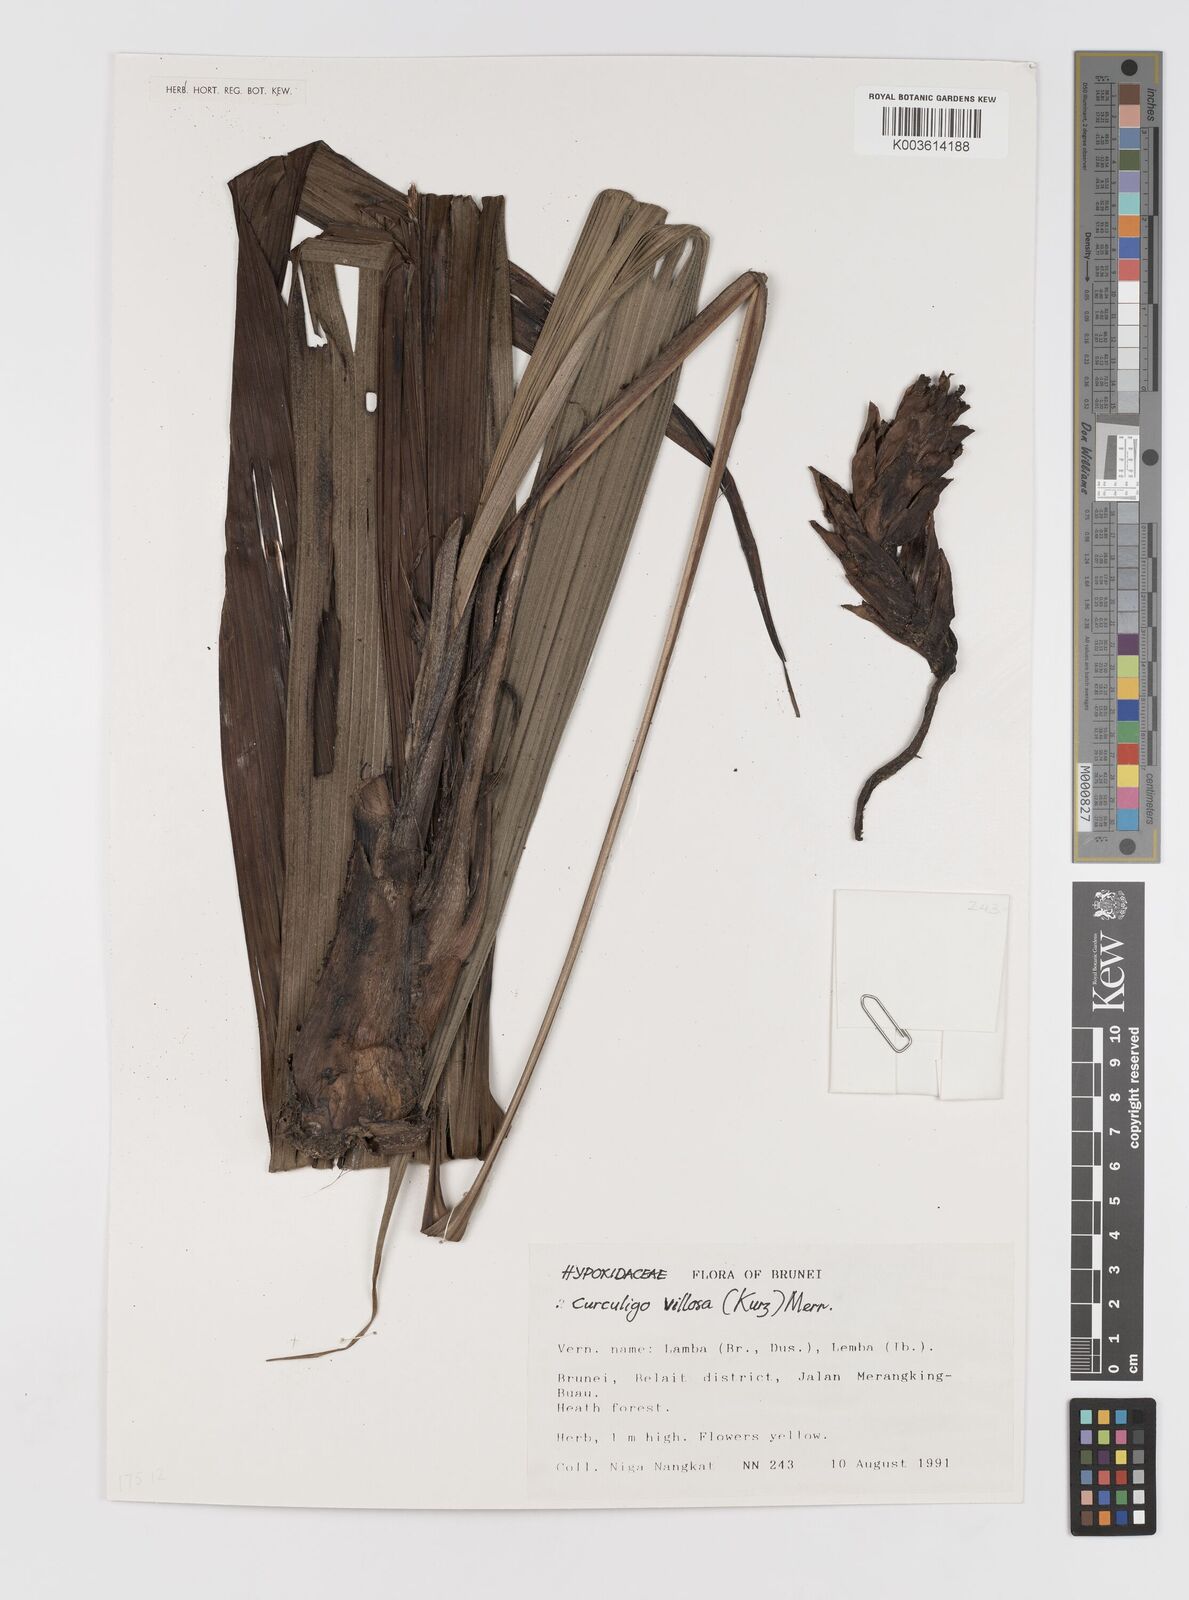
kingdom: Plantae
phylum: Tracheophyta
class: Liliopsida
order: Asparagales
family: Hypoxidaceae
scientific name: Hypoxidaceae
